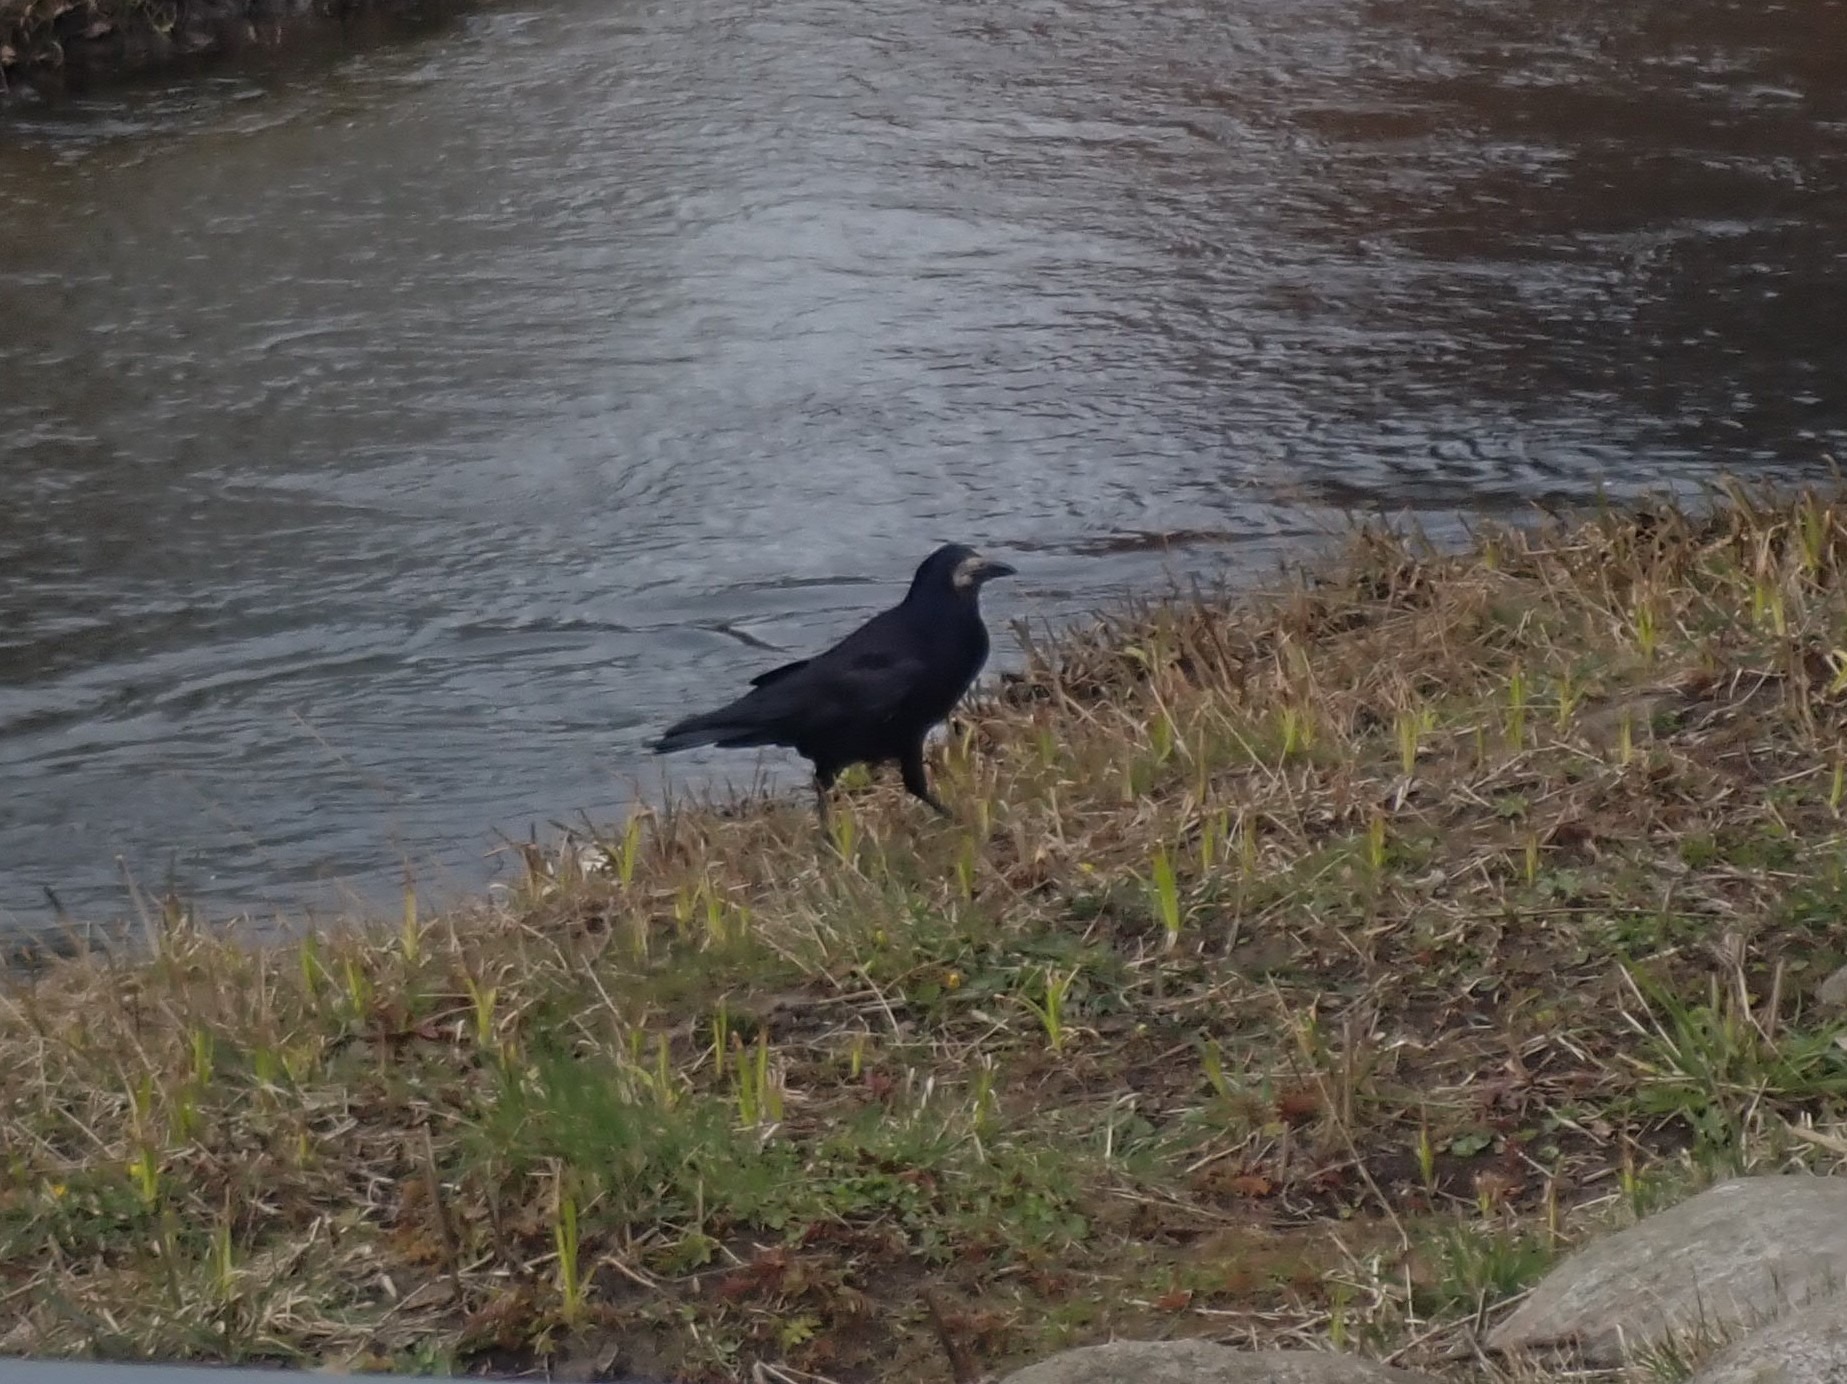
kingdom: Animalia
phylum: Chordata
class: Aves
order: Passeriformes
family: Corvidae
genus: Corvus
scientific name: Corvus frugilegus
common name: Råge
